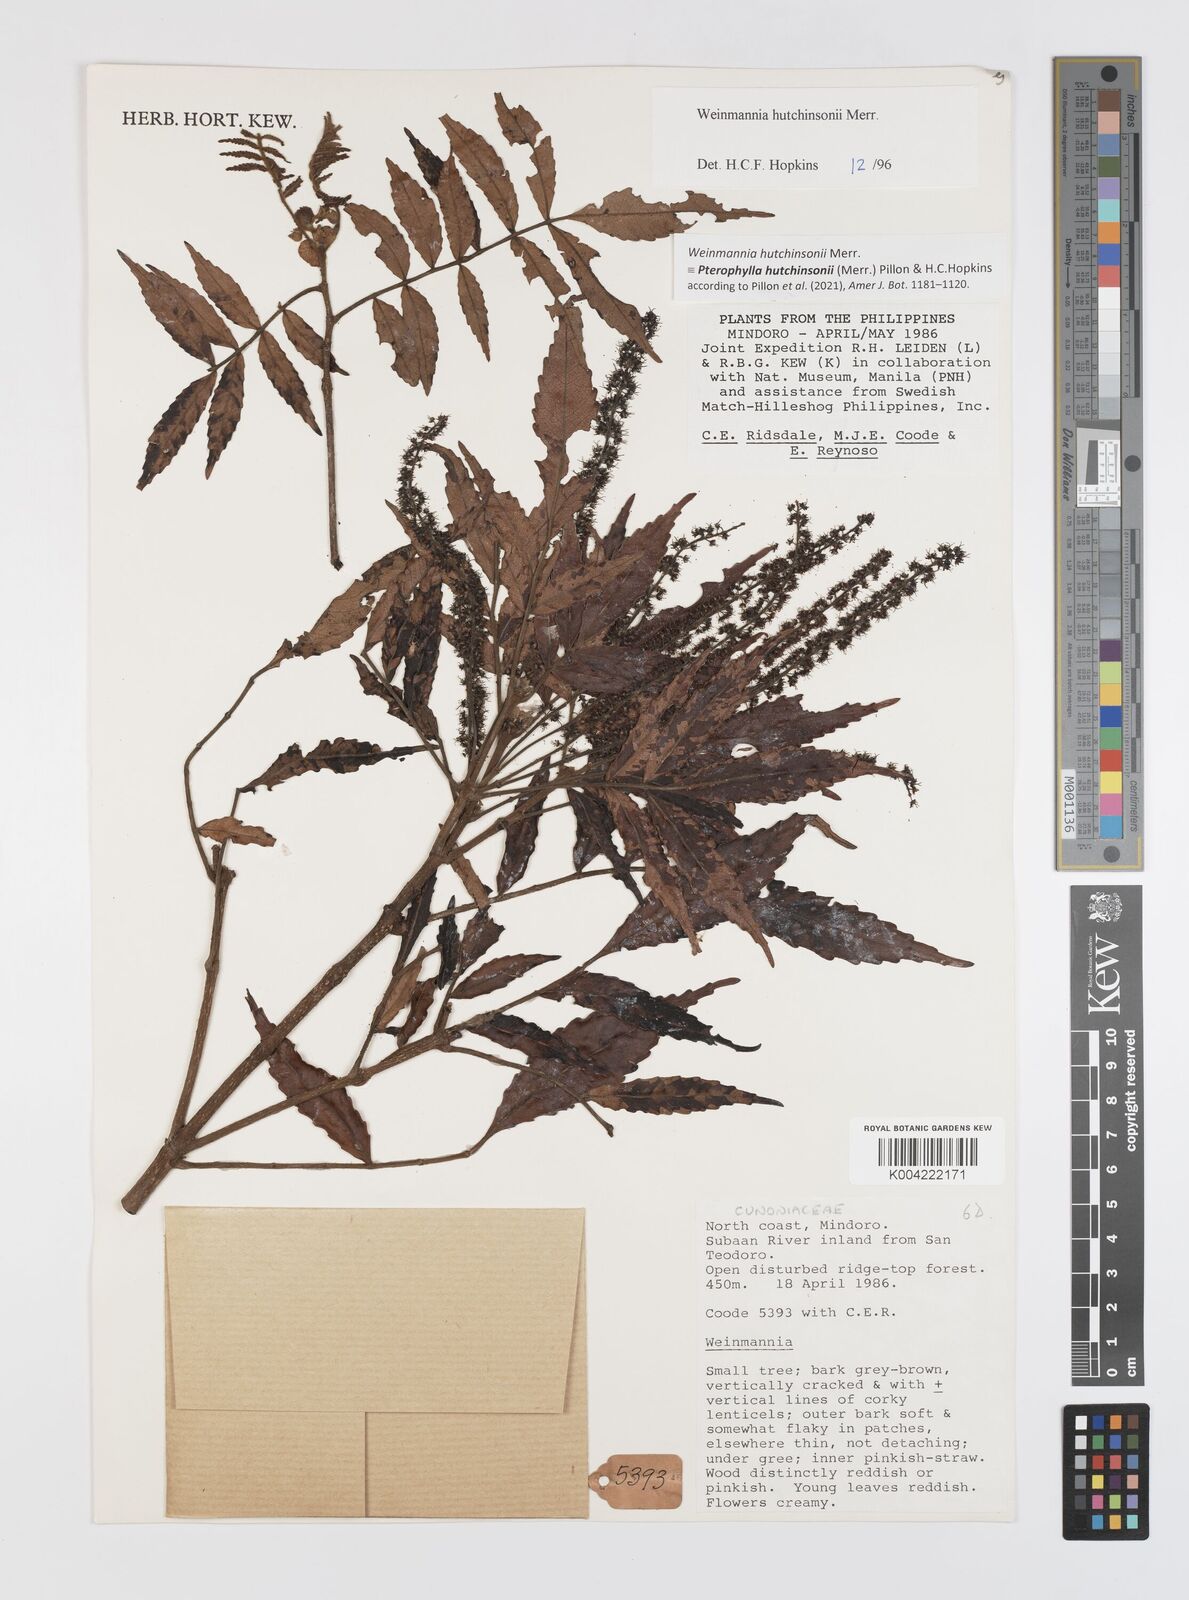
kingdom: Plantae
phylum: Tracheophyta
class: Magnoliopsida
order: Oxalidales
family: Cunoniaceae
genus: Pterophylla
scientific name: Pterophylla hutchinsonii
